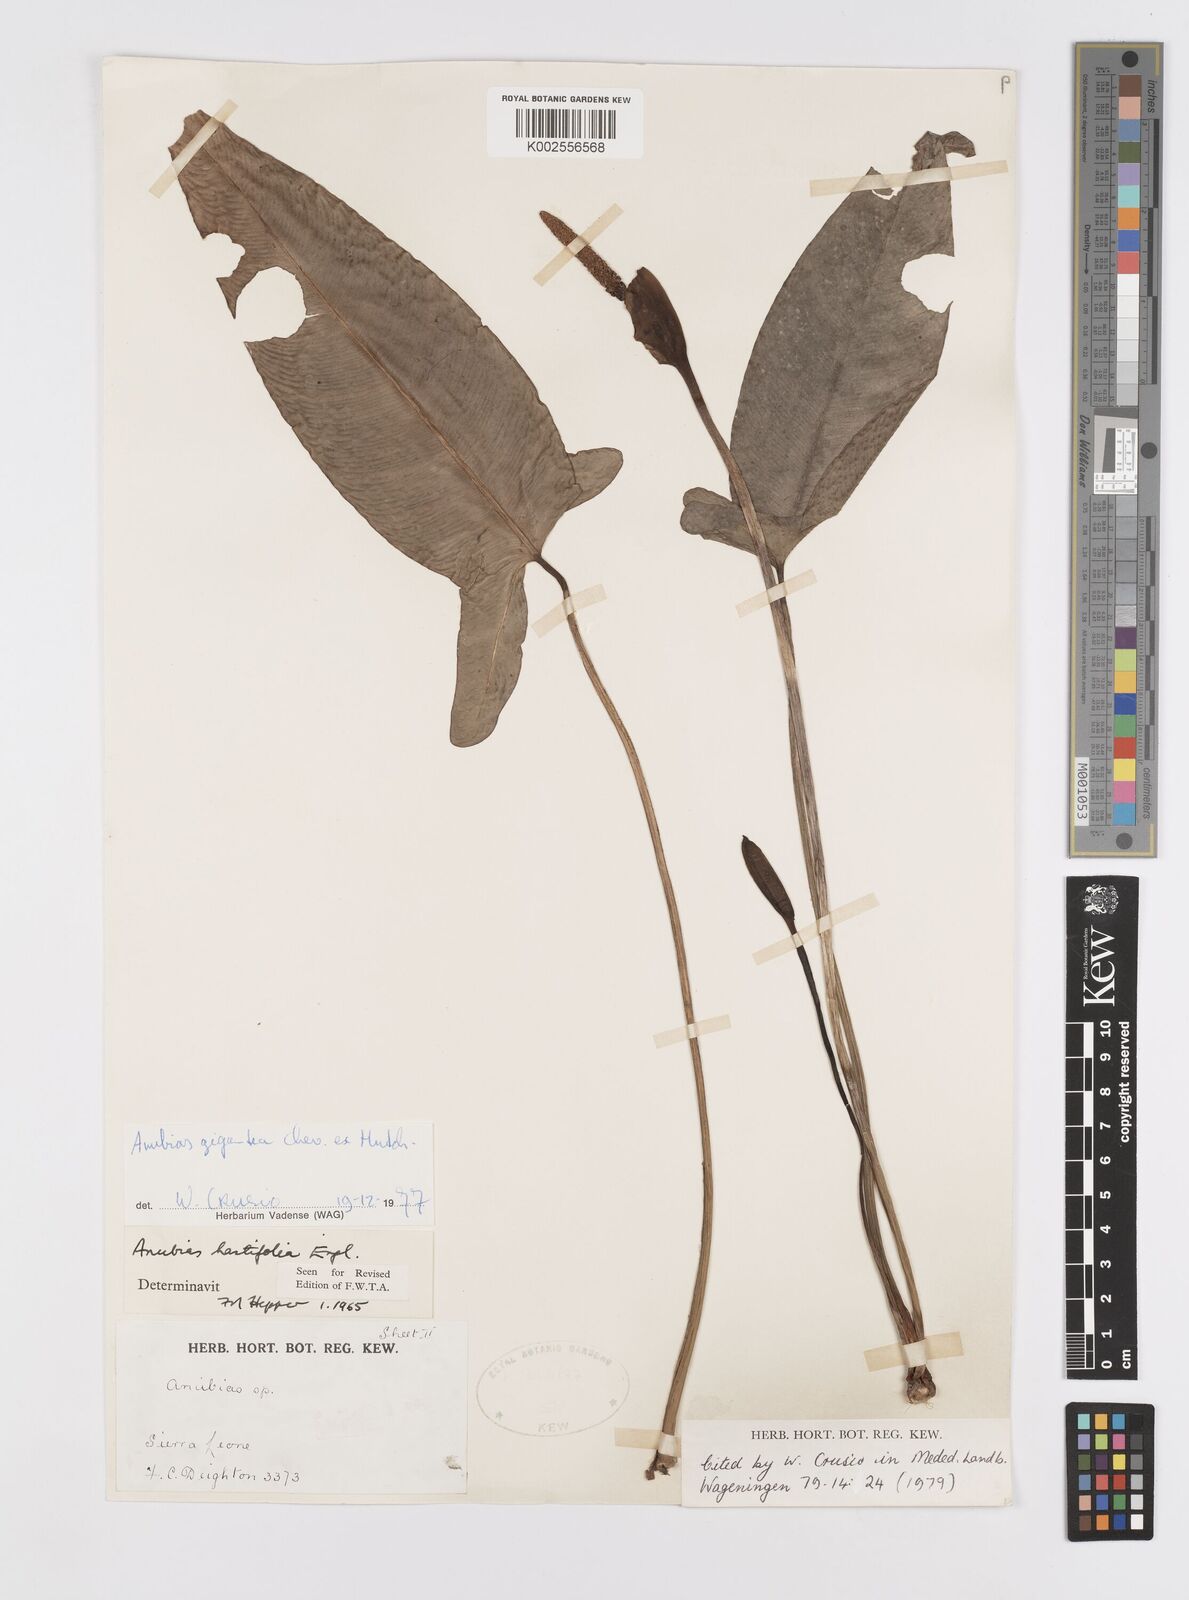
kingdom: Plantae
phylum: Tracheophyta
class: Liliopsida
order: Alismatales
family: Araceae
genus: Anubias
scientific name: Anubias gigantea
